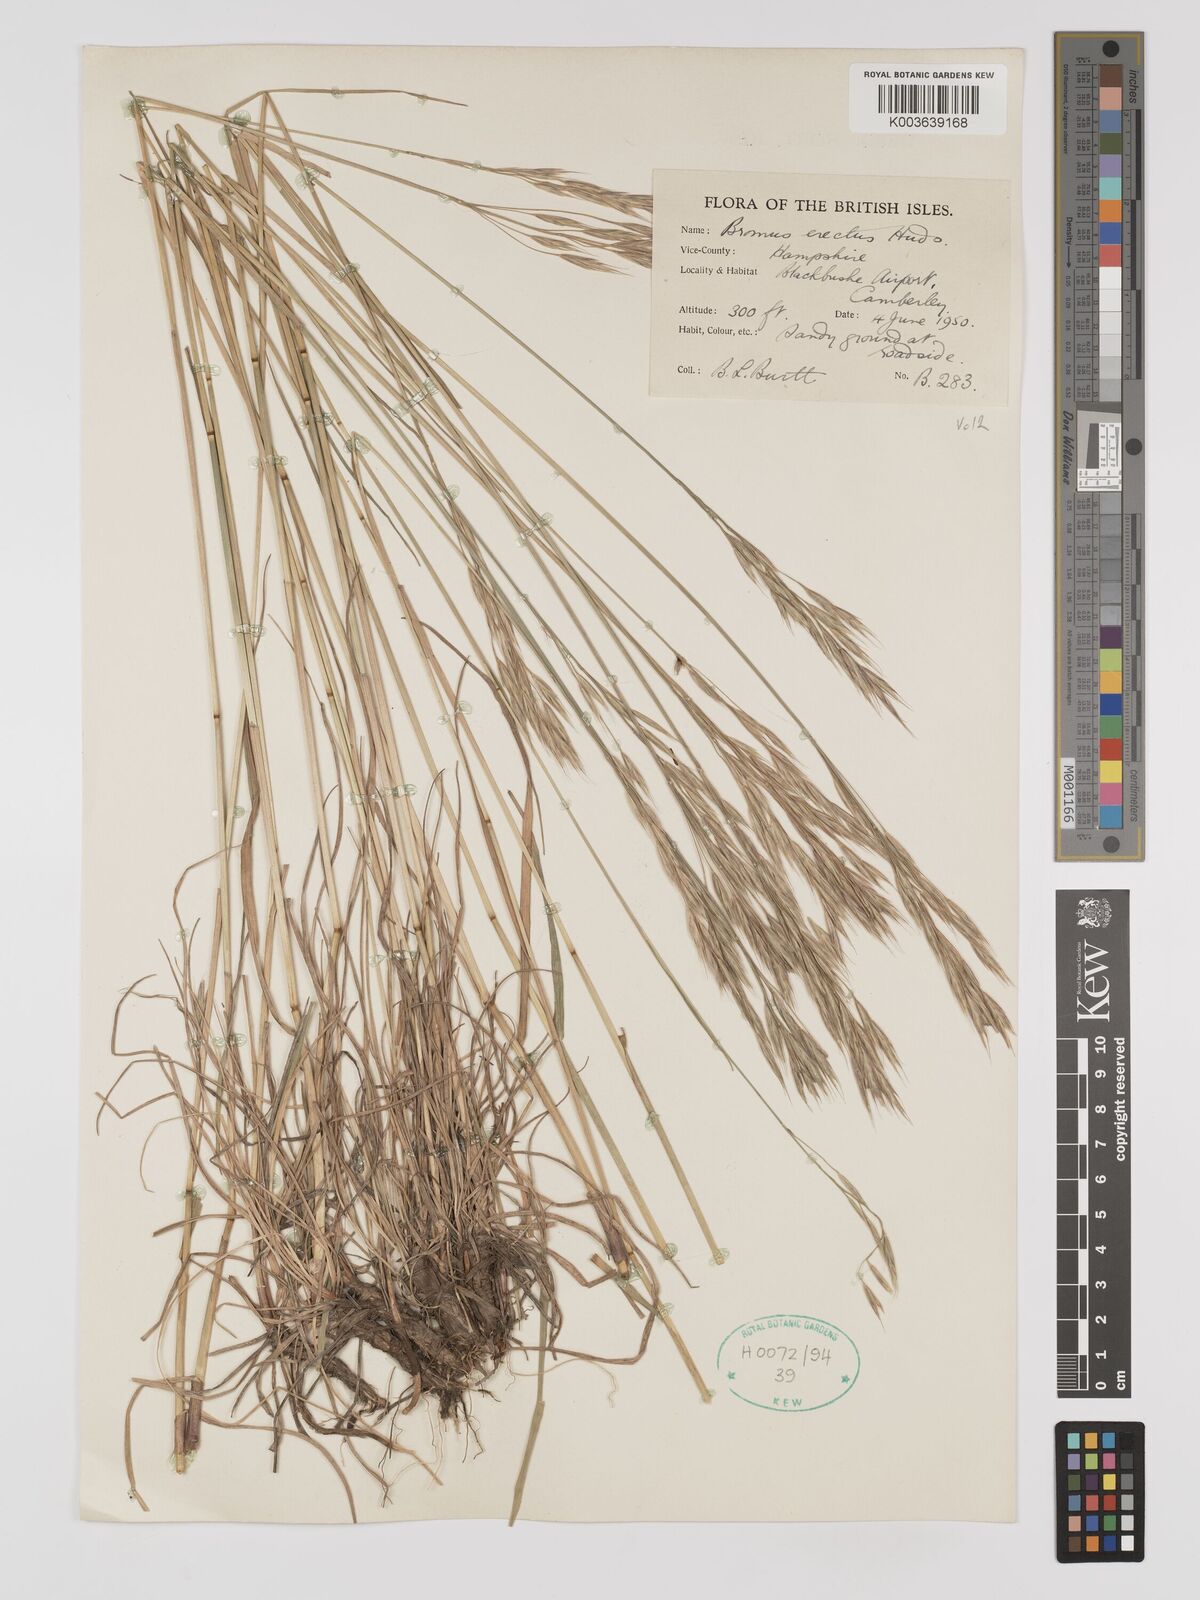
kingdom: Plantae
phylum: Tracheophyta
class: Liliopsida
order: Poales
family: Poaceae
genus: Bromus
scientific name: Bromus erectus
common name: Erect brome
